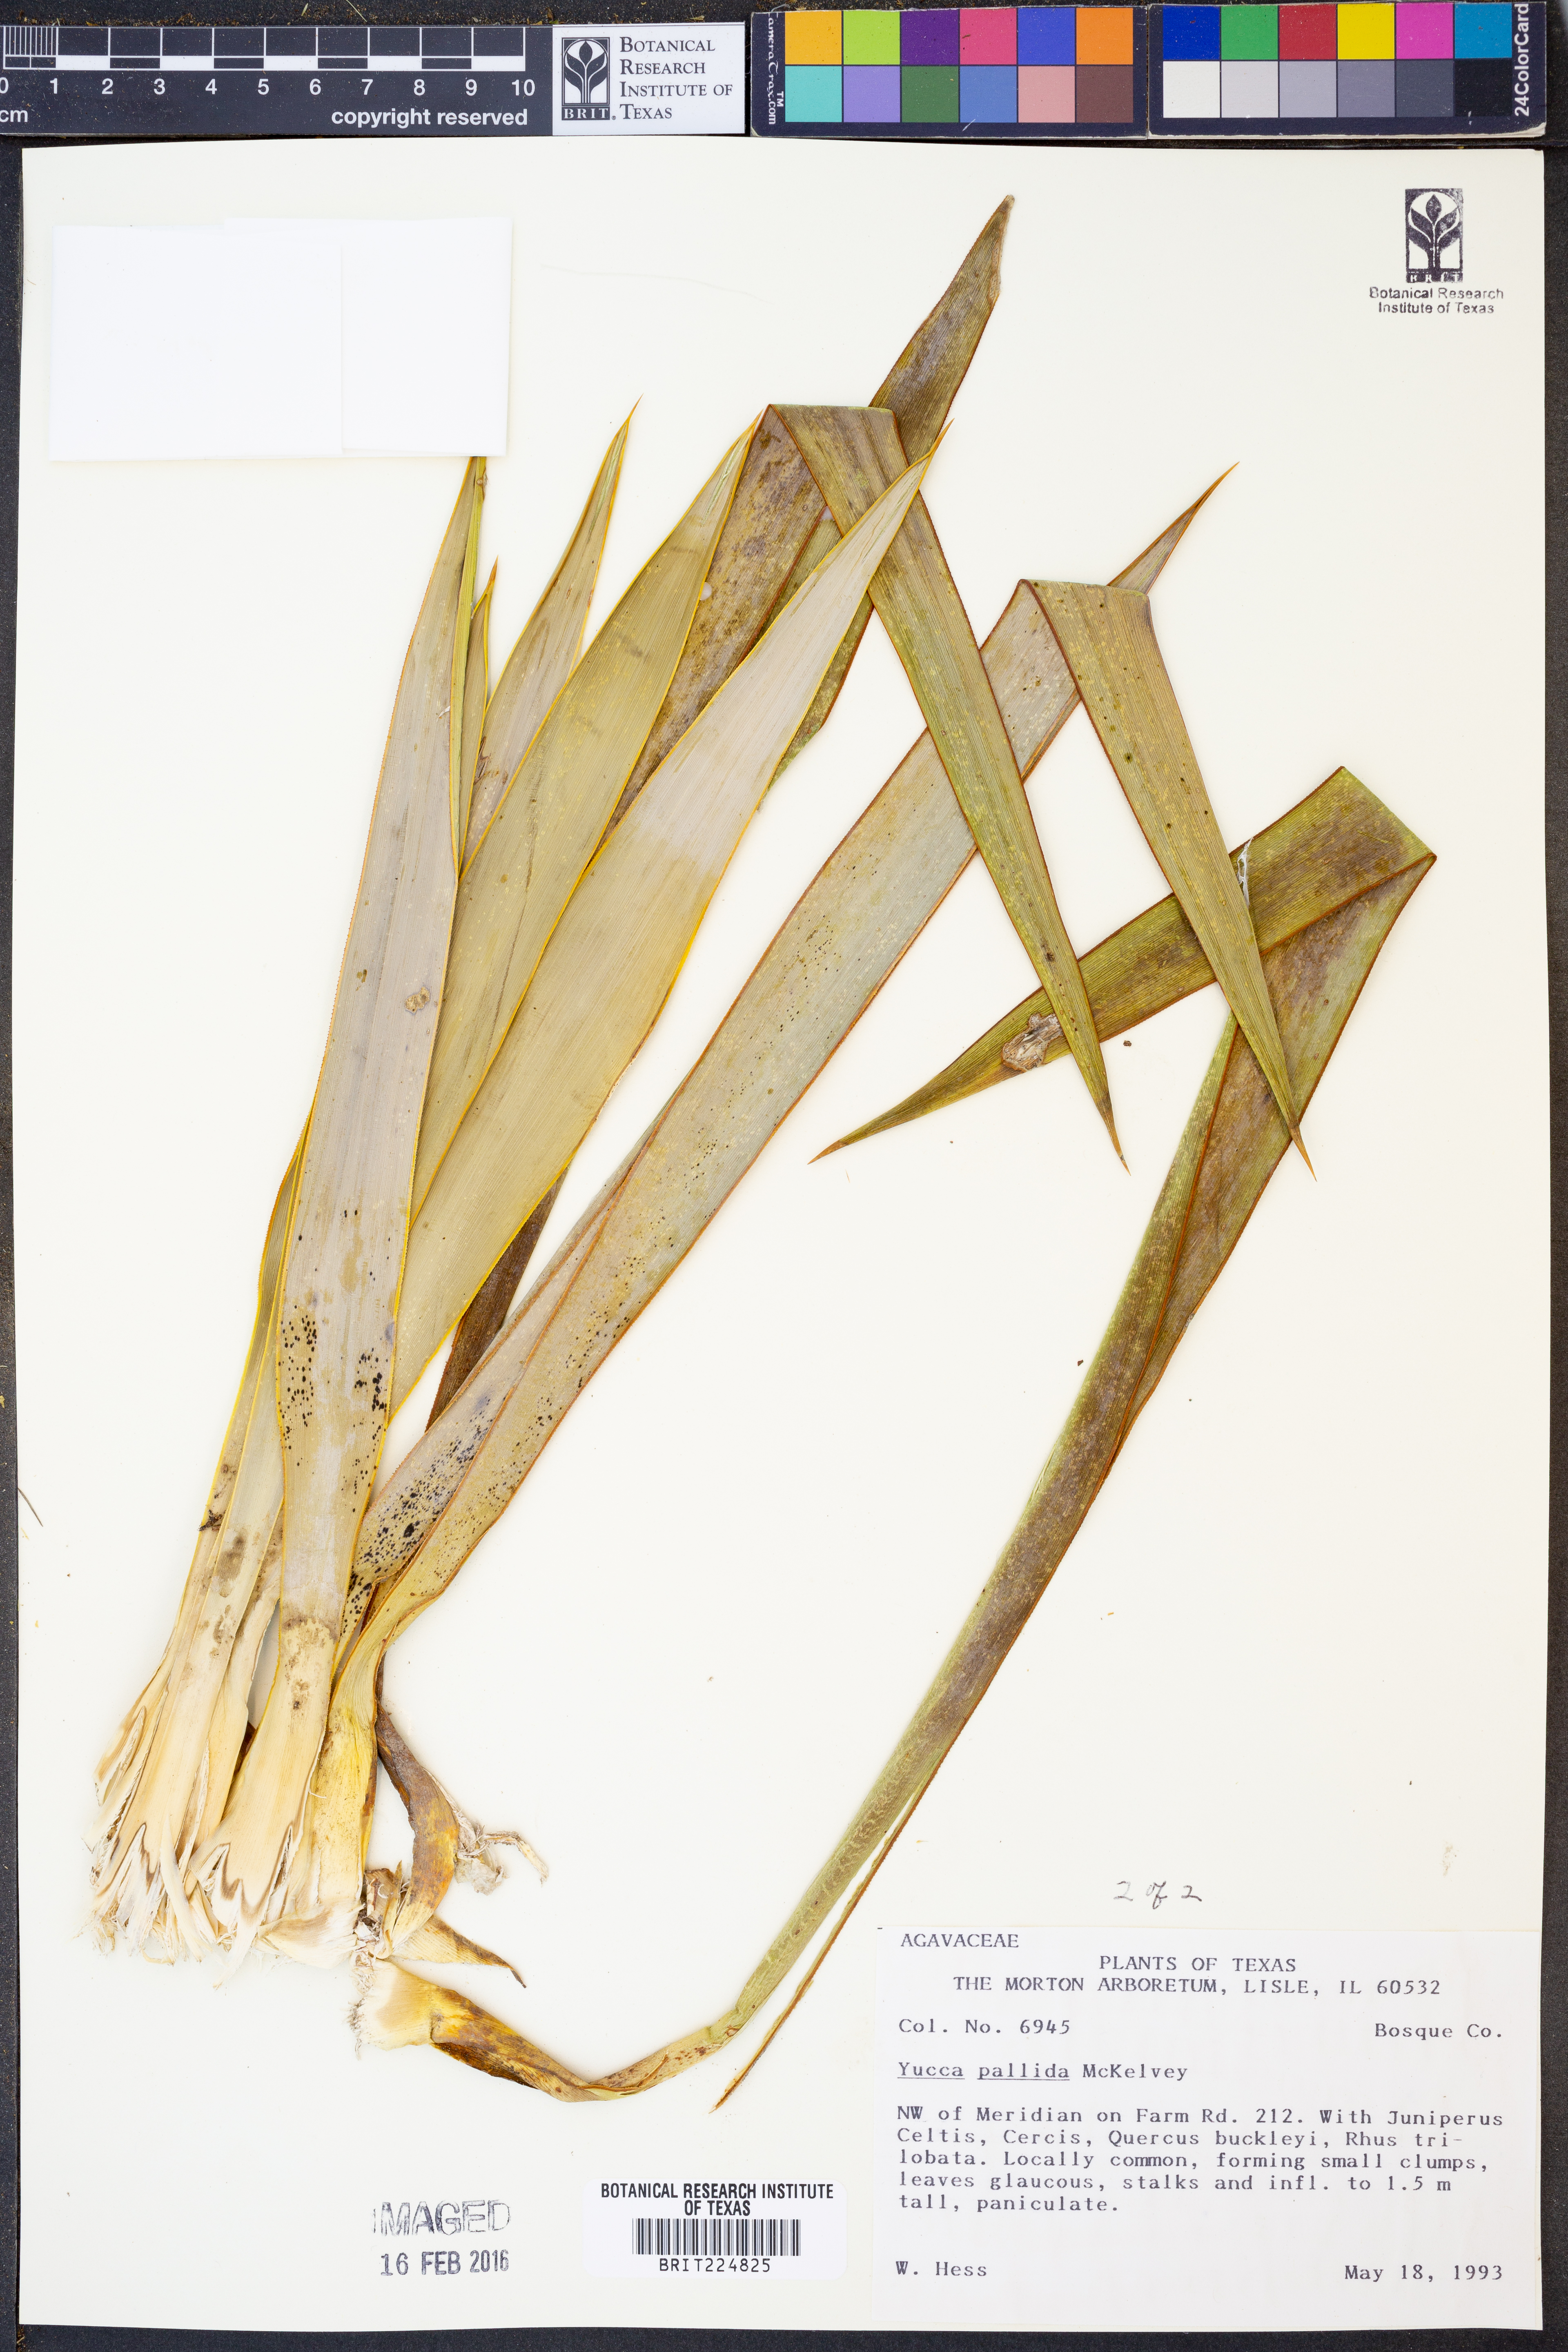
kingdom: Plantae
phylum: Tracheophyta
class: Liliopsida
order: Asparagales
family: Asparagaceae
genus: Yucca
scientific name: Yucca pallida
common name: Pale leaf yucca
